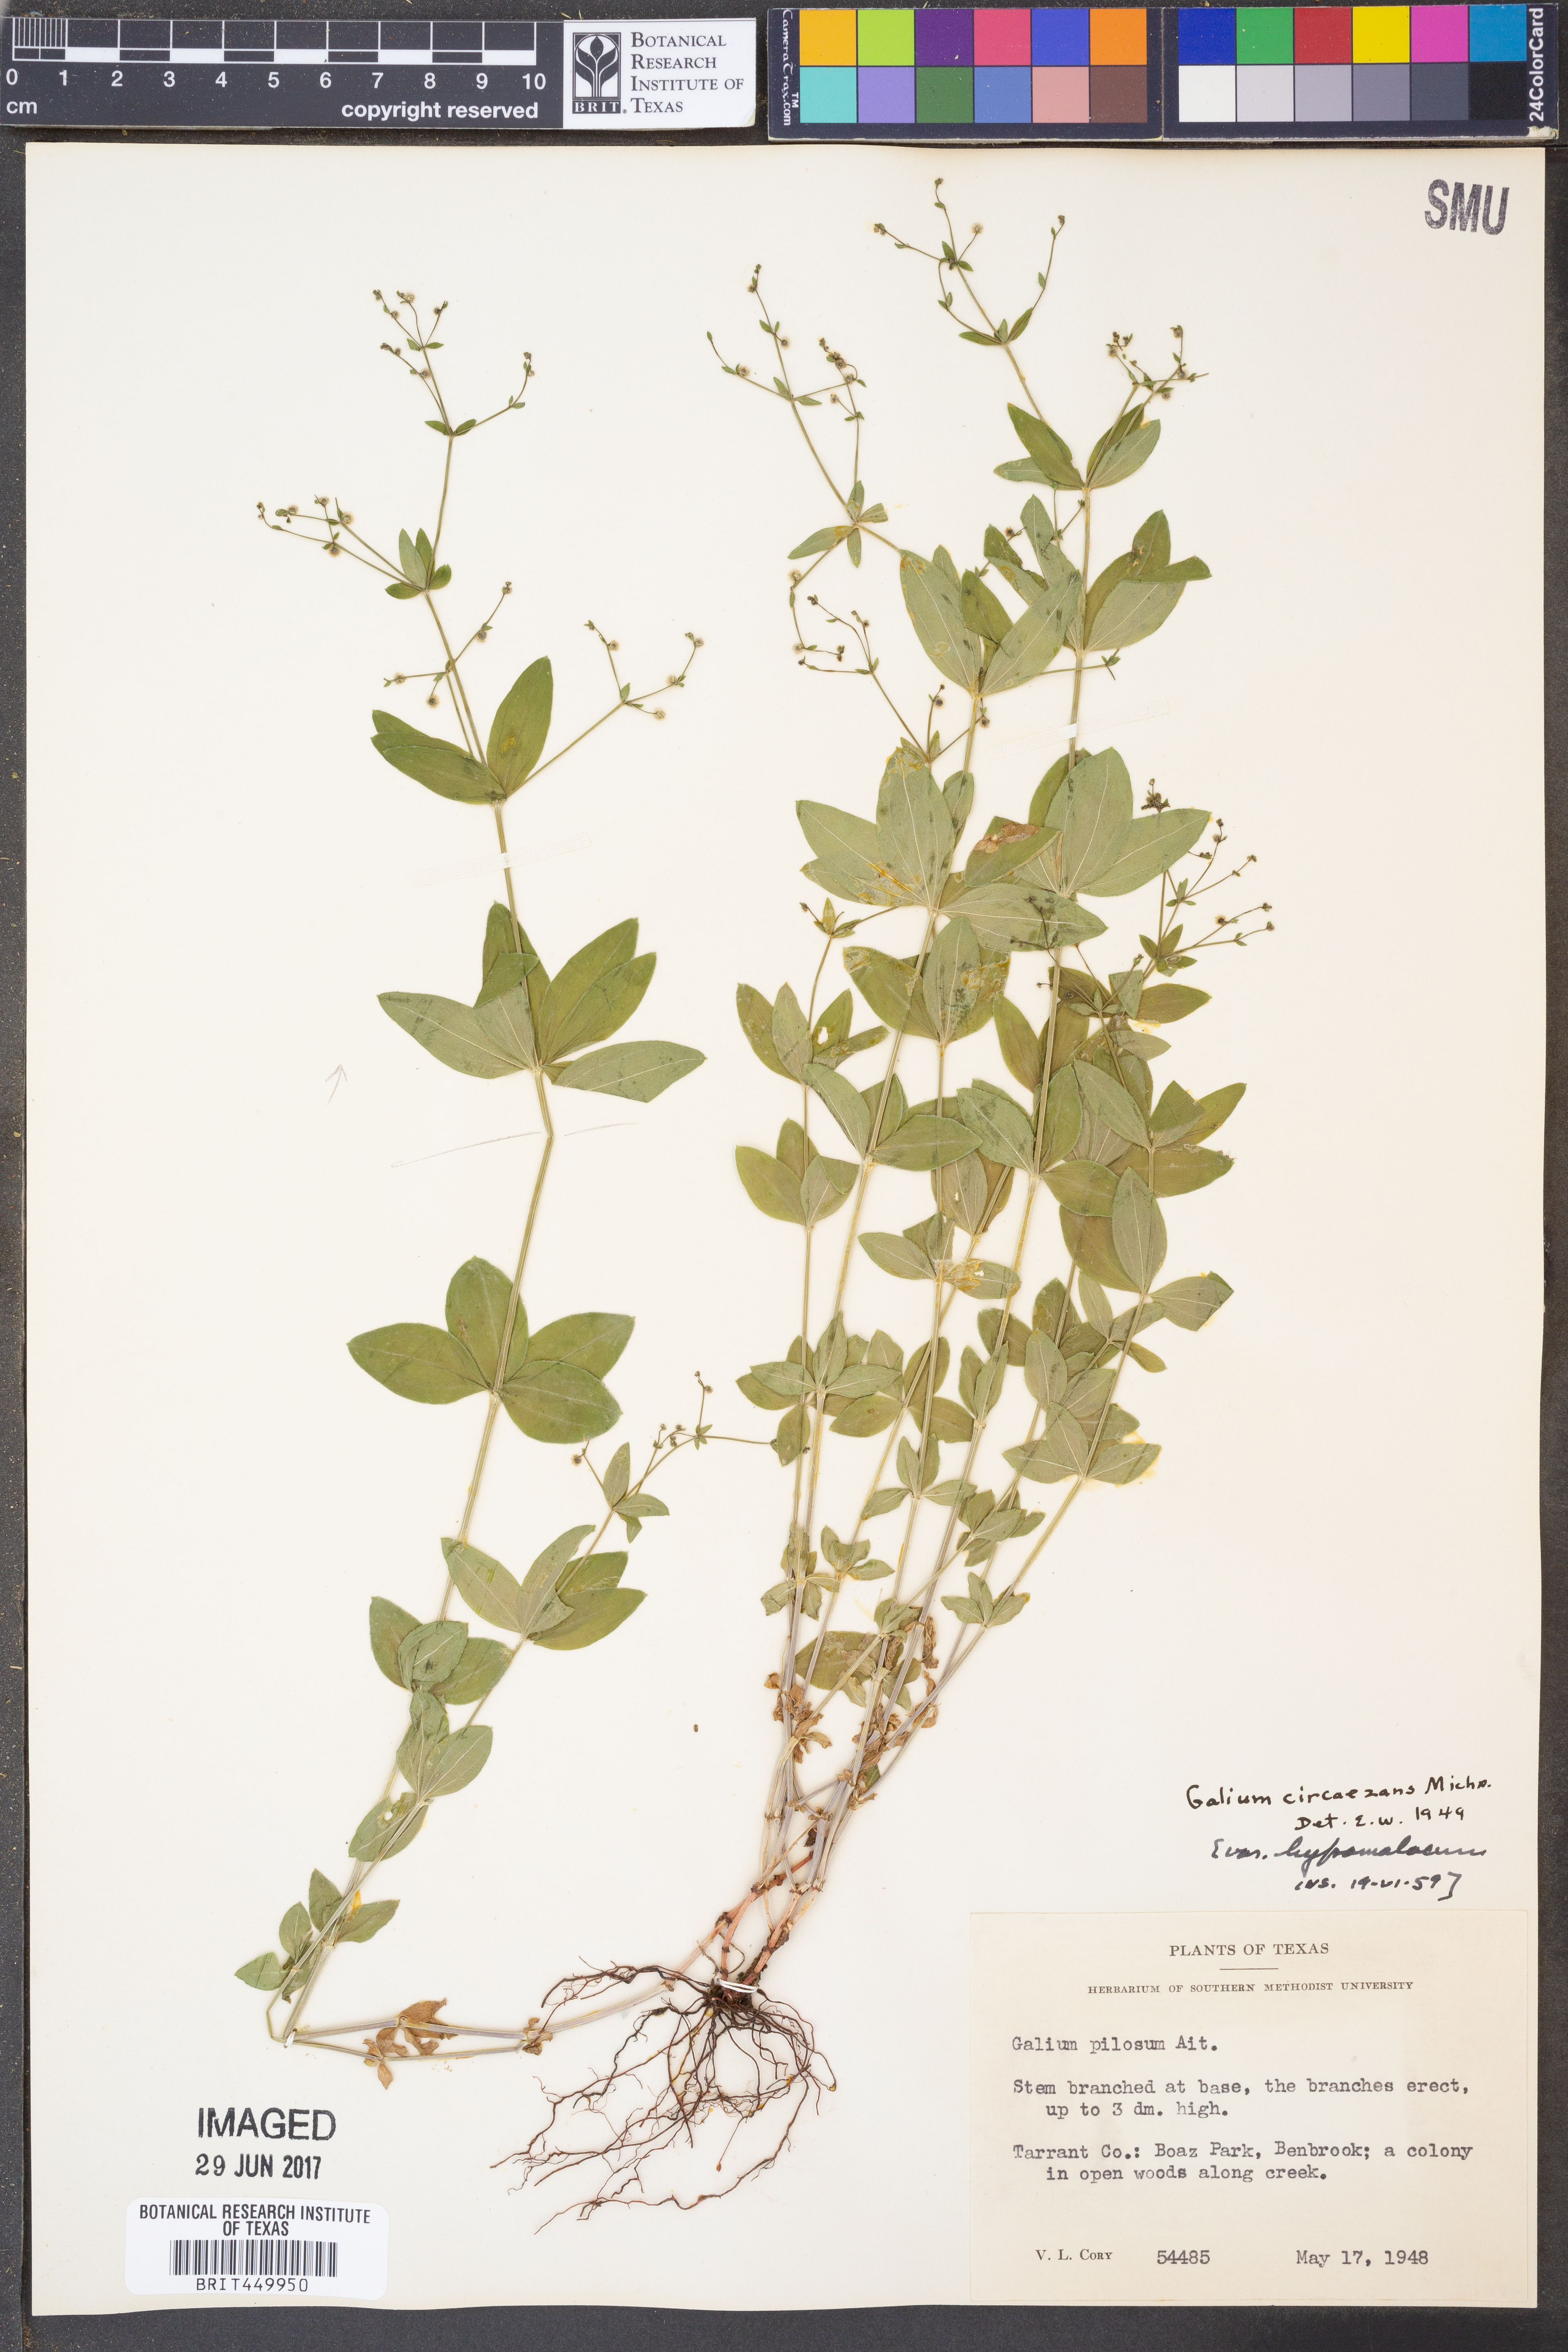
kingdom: Plantae
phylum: Tracheophyta
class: Magnoliopsida
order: Gentianales
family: Rubiaceae
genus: Galium
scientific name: Galium circaezans
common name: Forest bedstraw
